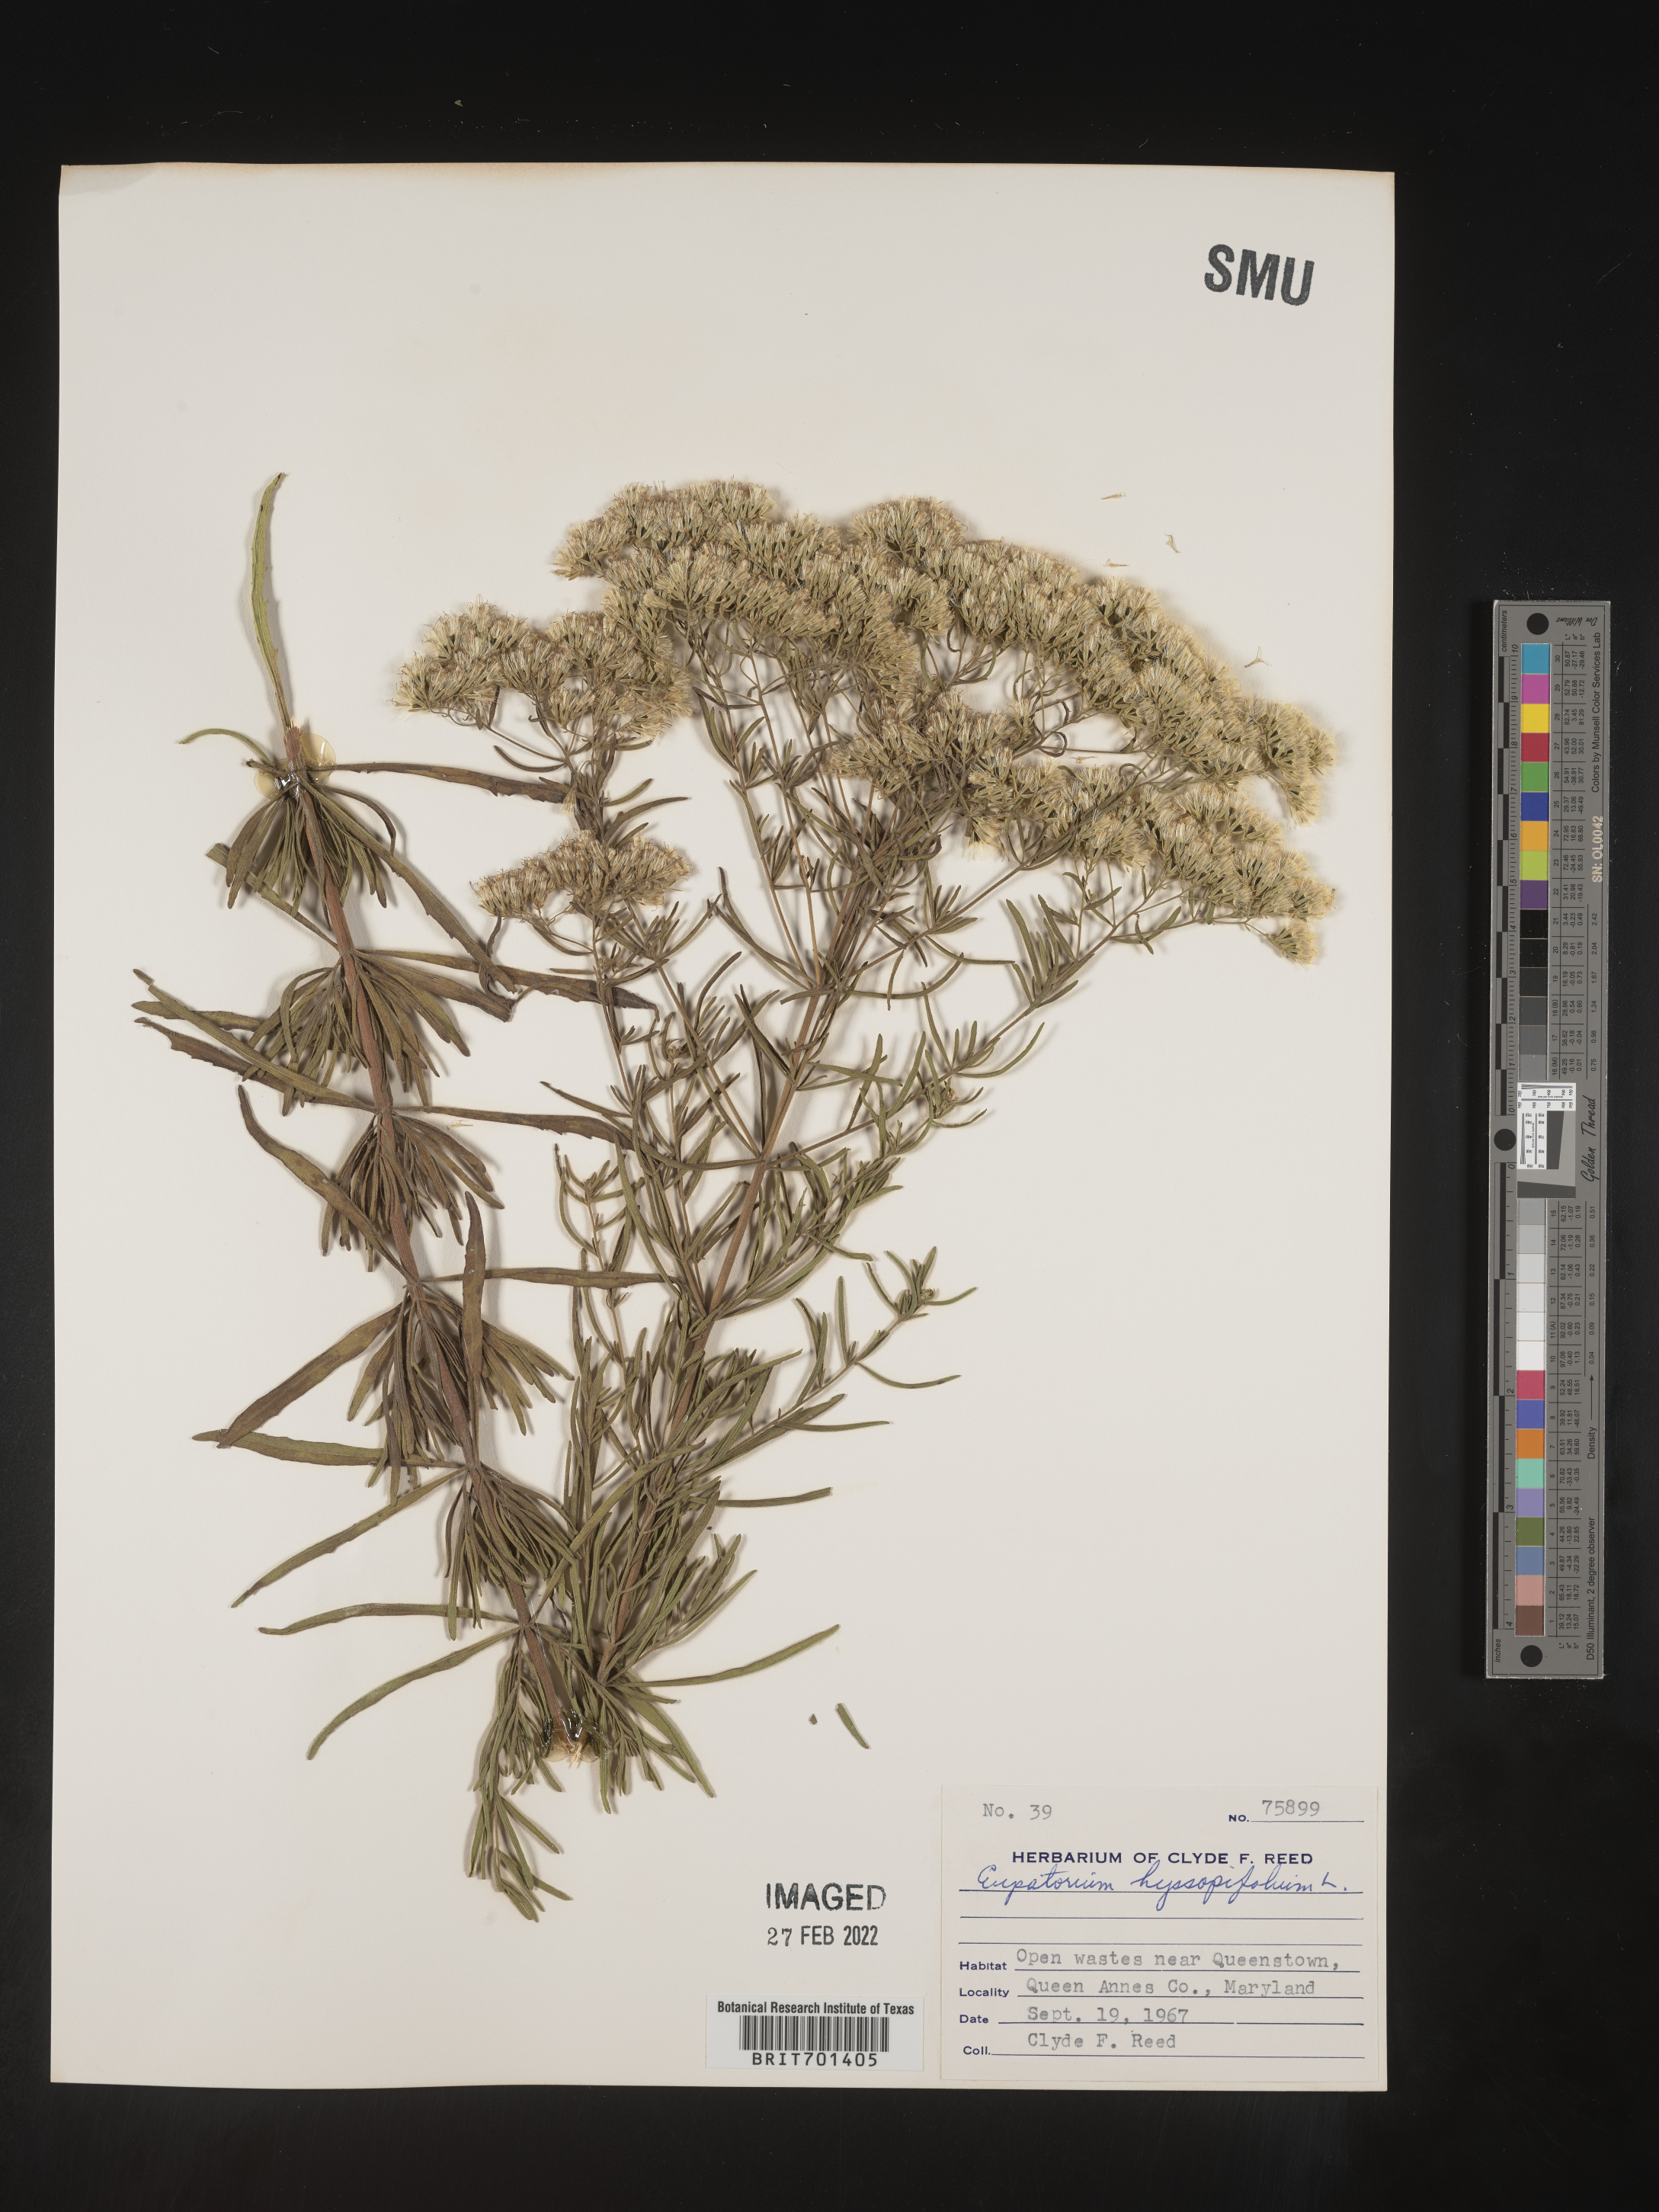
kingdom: Plantae
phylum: Tracheophyta
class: Magnoliopsida
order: Asterales
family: Asteraceae
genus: Eupatorium
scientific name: Eupatorium hyssopifolium
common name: Hyssop-leaf thoroughwort
